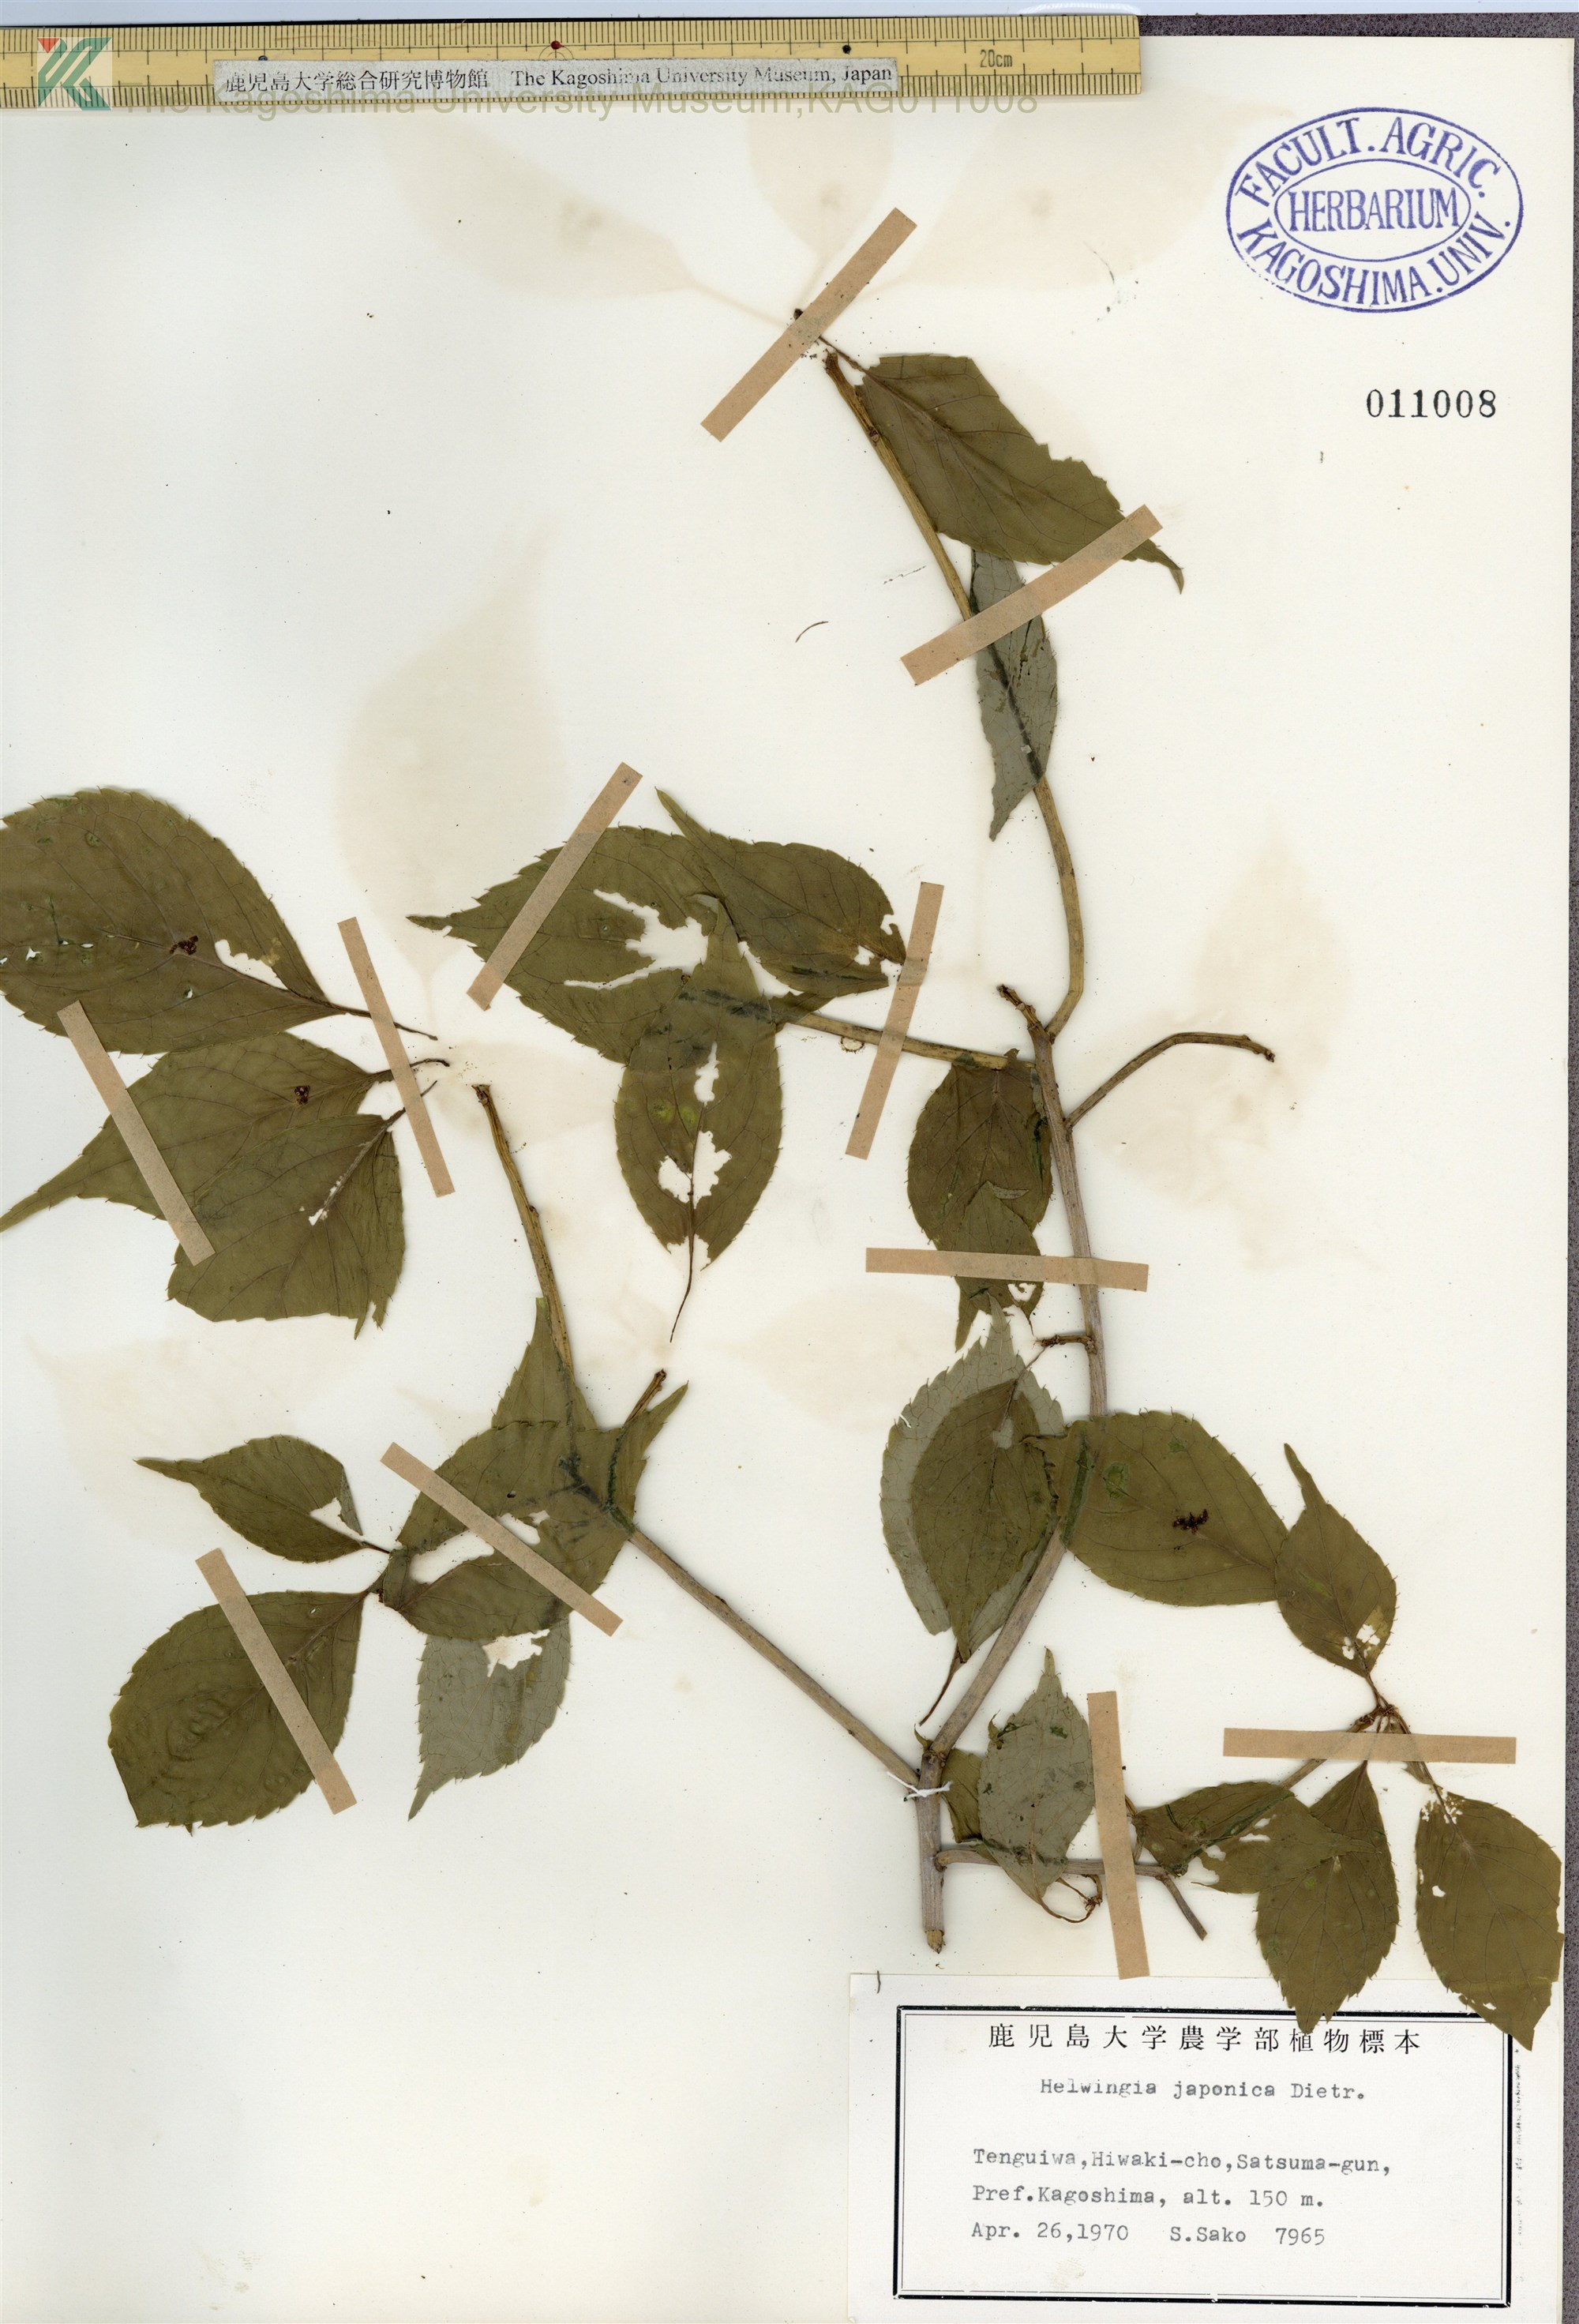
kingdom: Plantae
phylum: Tracheophyta
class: Magnoliopsida
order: Aquifoliales
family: Helwingiaceae
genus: Helwingia
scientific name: Helwingia japonica
